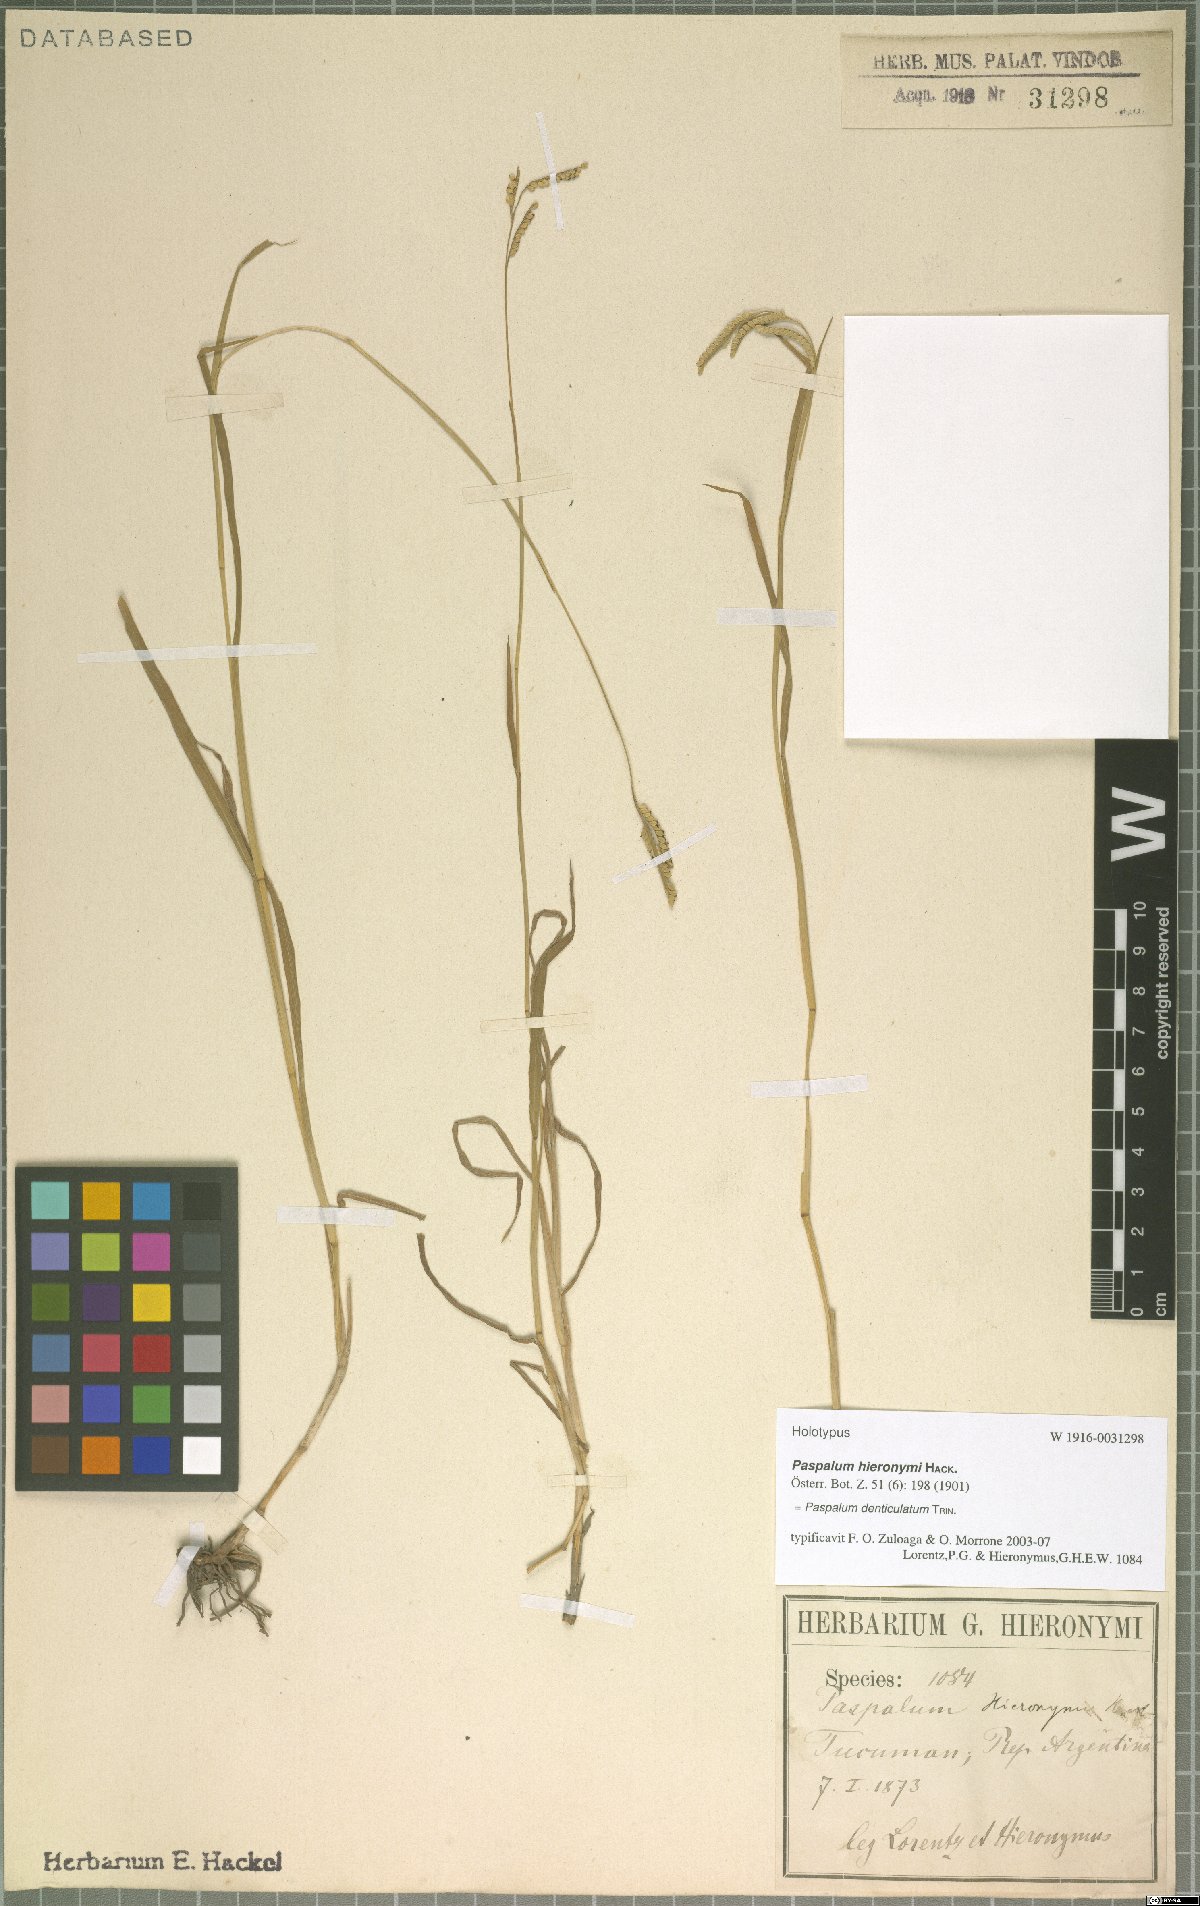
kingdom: Plantae
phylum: Tracheophyta
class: Liliopsida
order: Poales
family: Poaceae
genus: Paspalum
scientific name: Paspalum denticulatum
